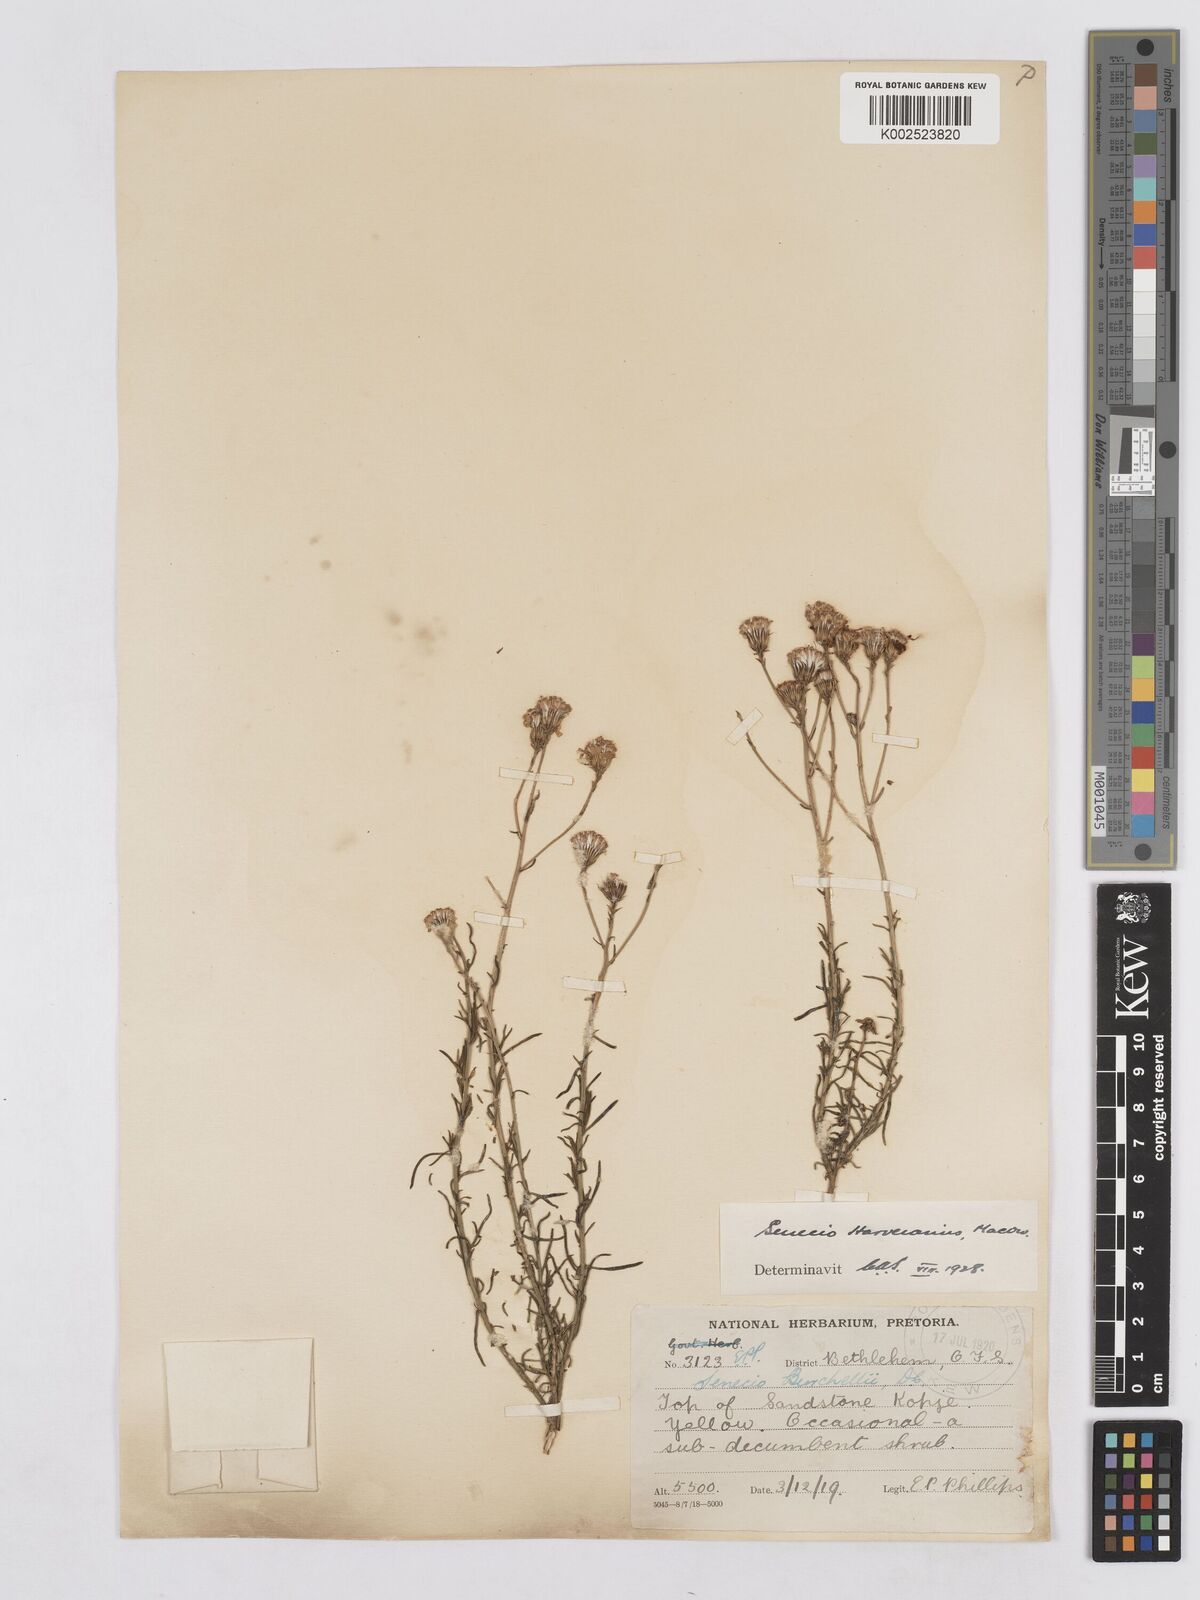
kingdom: Plantae
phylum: Tracheophyta
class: Magnoliopsida
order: Asterales
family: Asteraceae
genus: Senecio
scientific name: Senecio harveyanus
